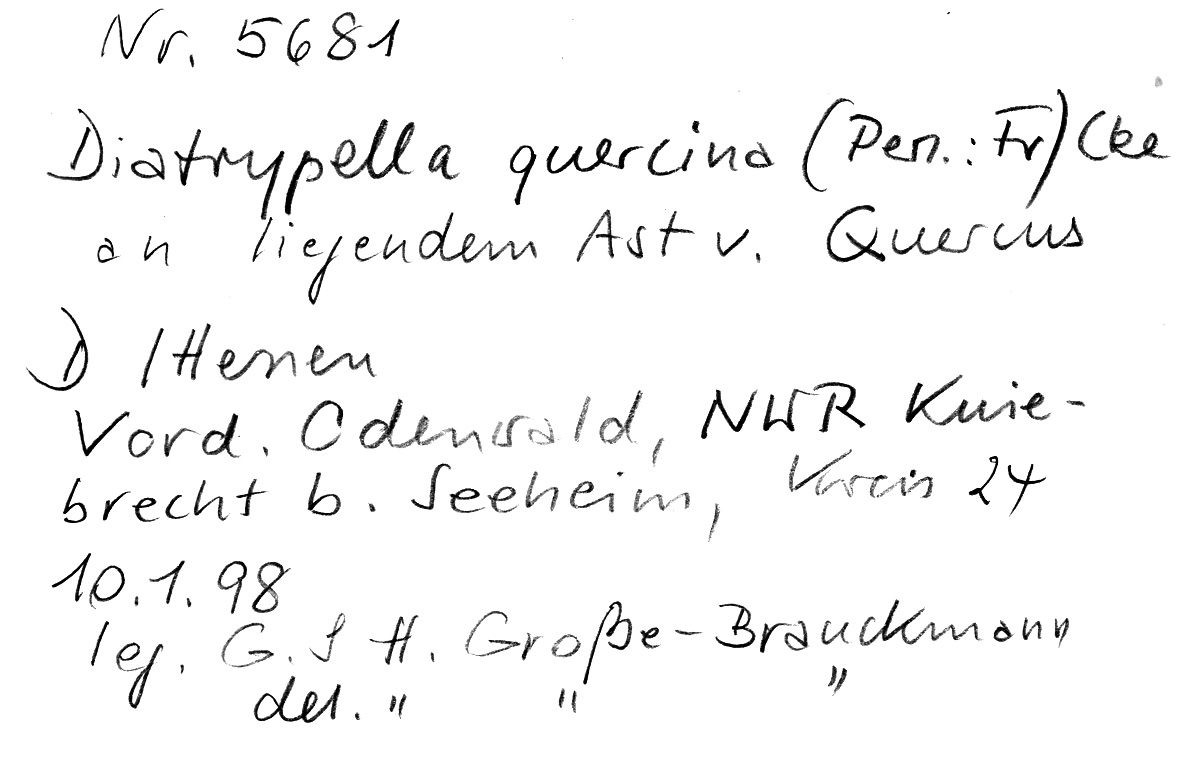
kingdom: Fungi
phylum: Ascomycota
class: Sordariomycetes
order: Xylariales
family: Diatrypaceae
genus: Diatrypella
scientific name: Diatrypella quercina
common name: Oak blackhead
